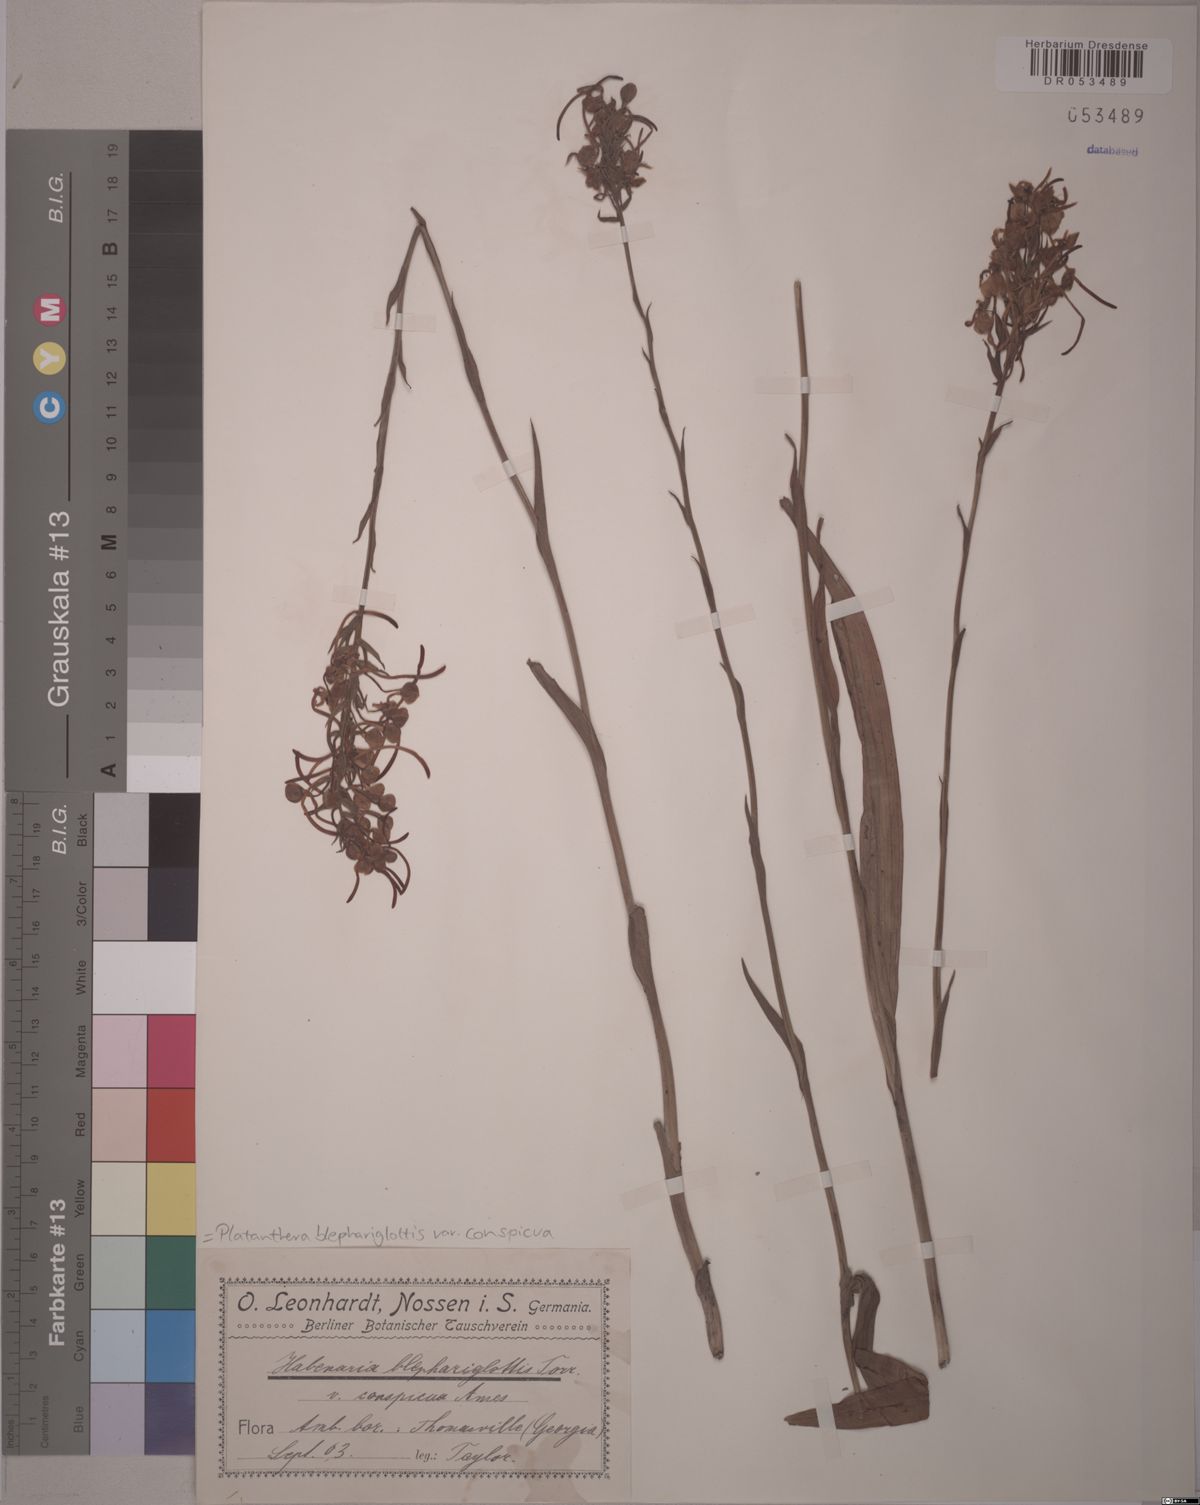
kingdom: Plantae
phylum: Tracheophyta
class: Liliopsida
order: Asparagales
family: Orchidaceae
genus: Platanthera
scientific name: Platanthera blephariglottis
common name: White fringed orchid
